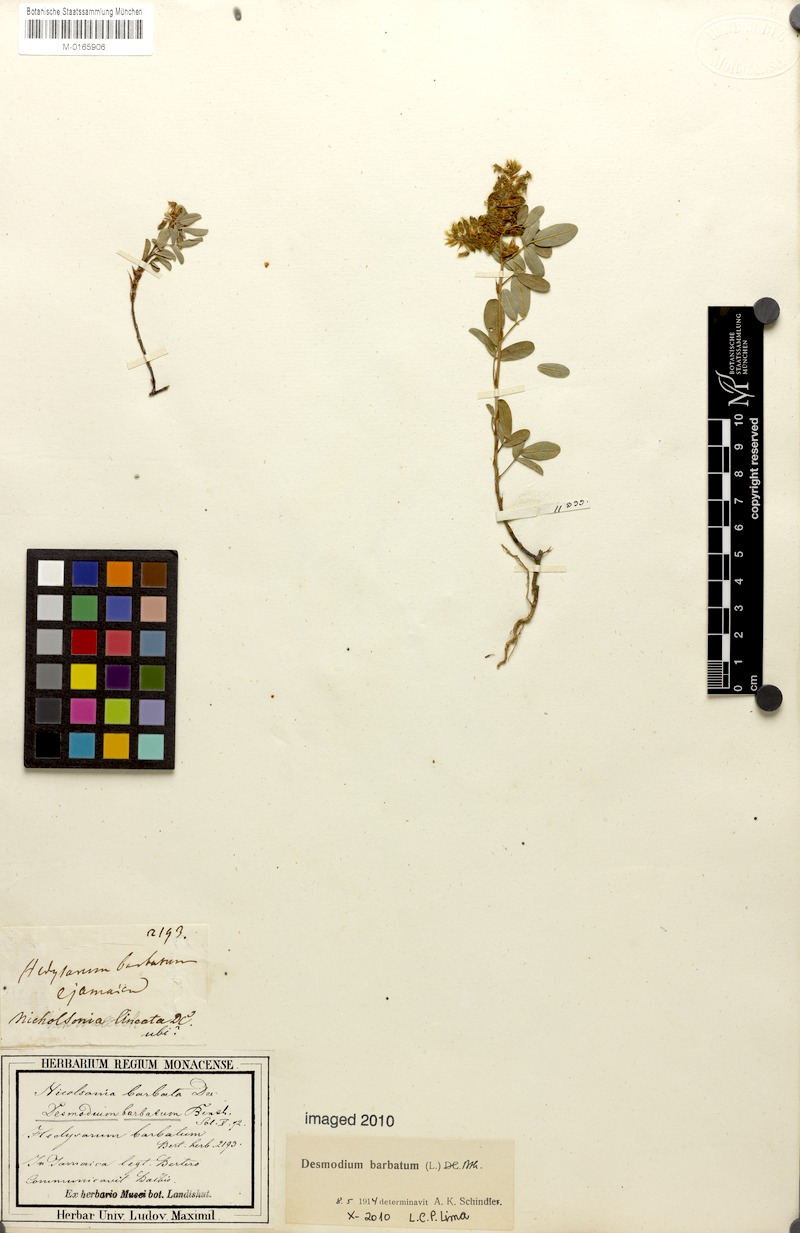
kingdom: Plantae
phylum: Tracheophyta
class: Magnoliopsida
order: Fabales
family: Fabaceae
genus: Grona
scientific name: Grona barbata
